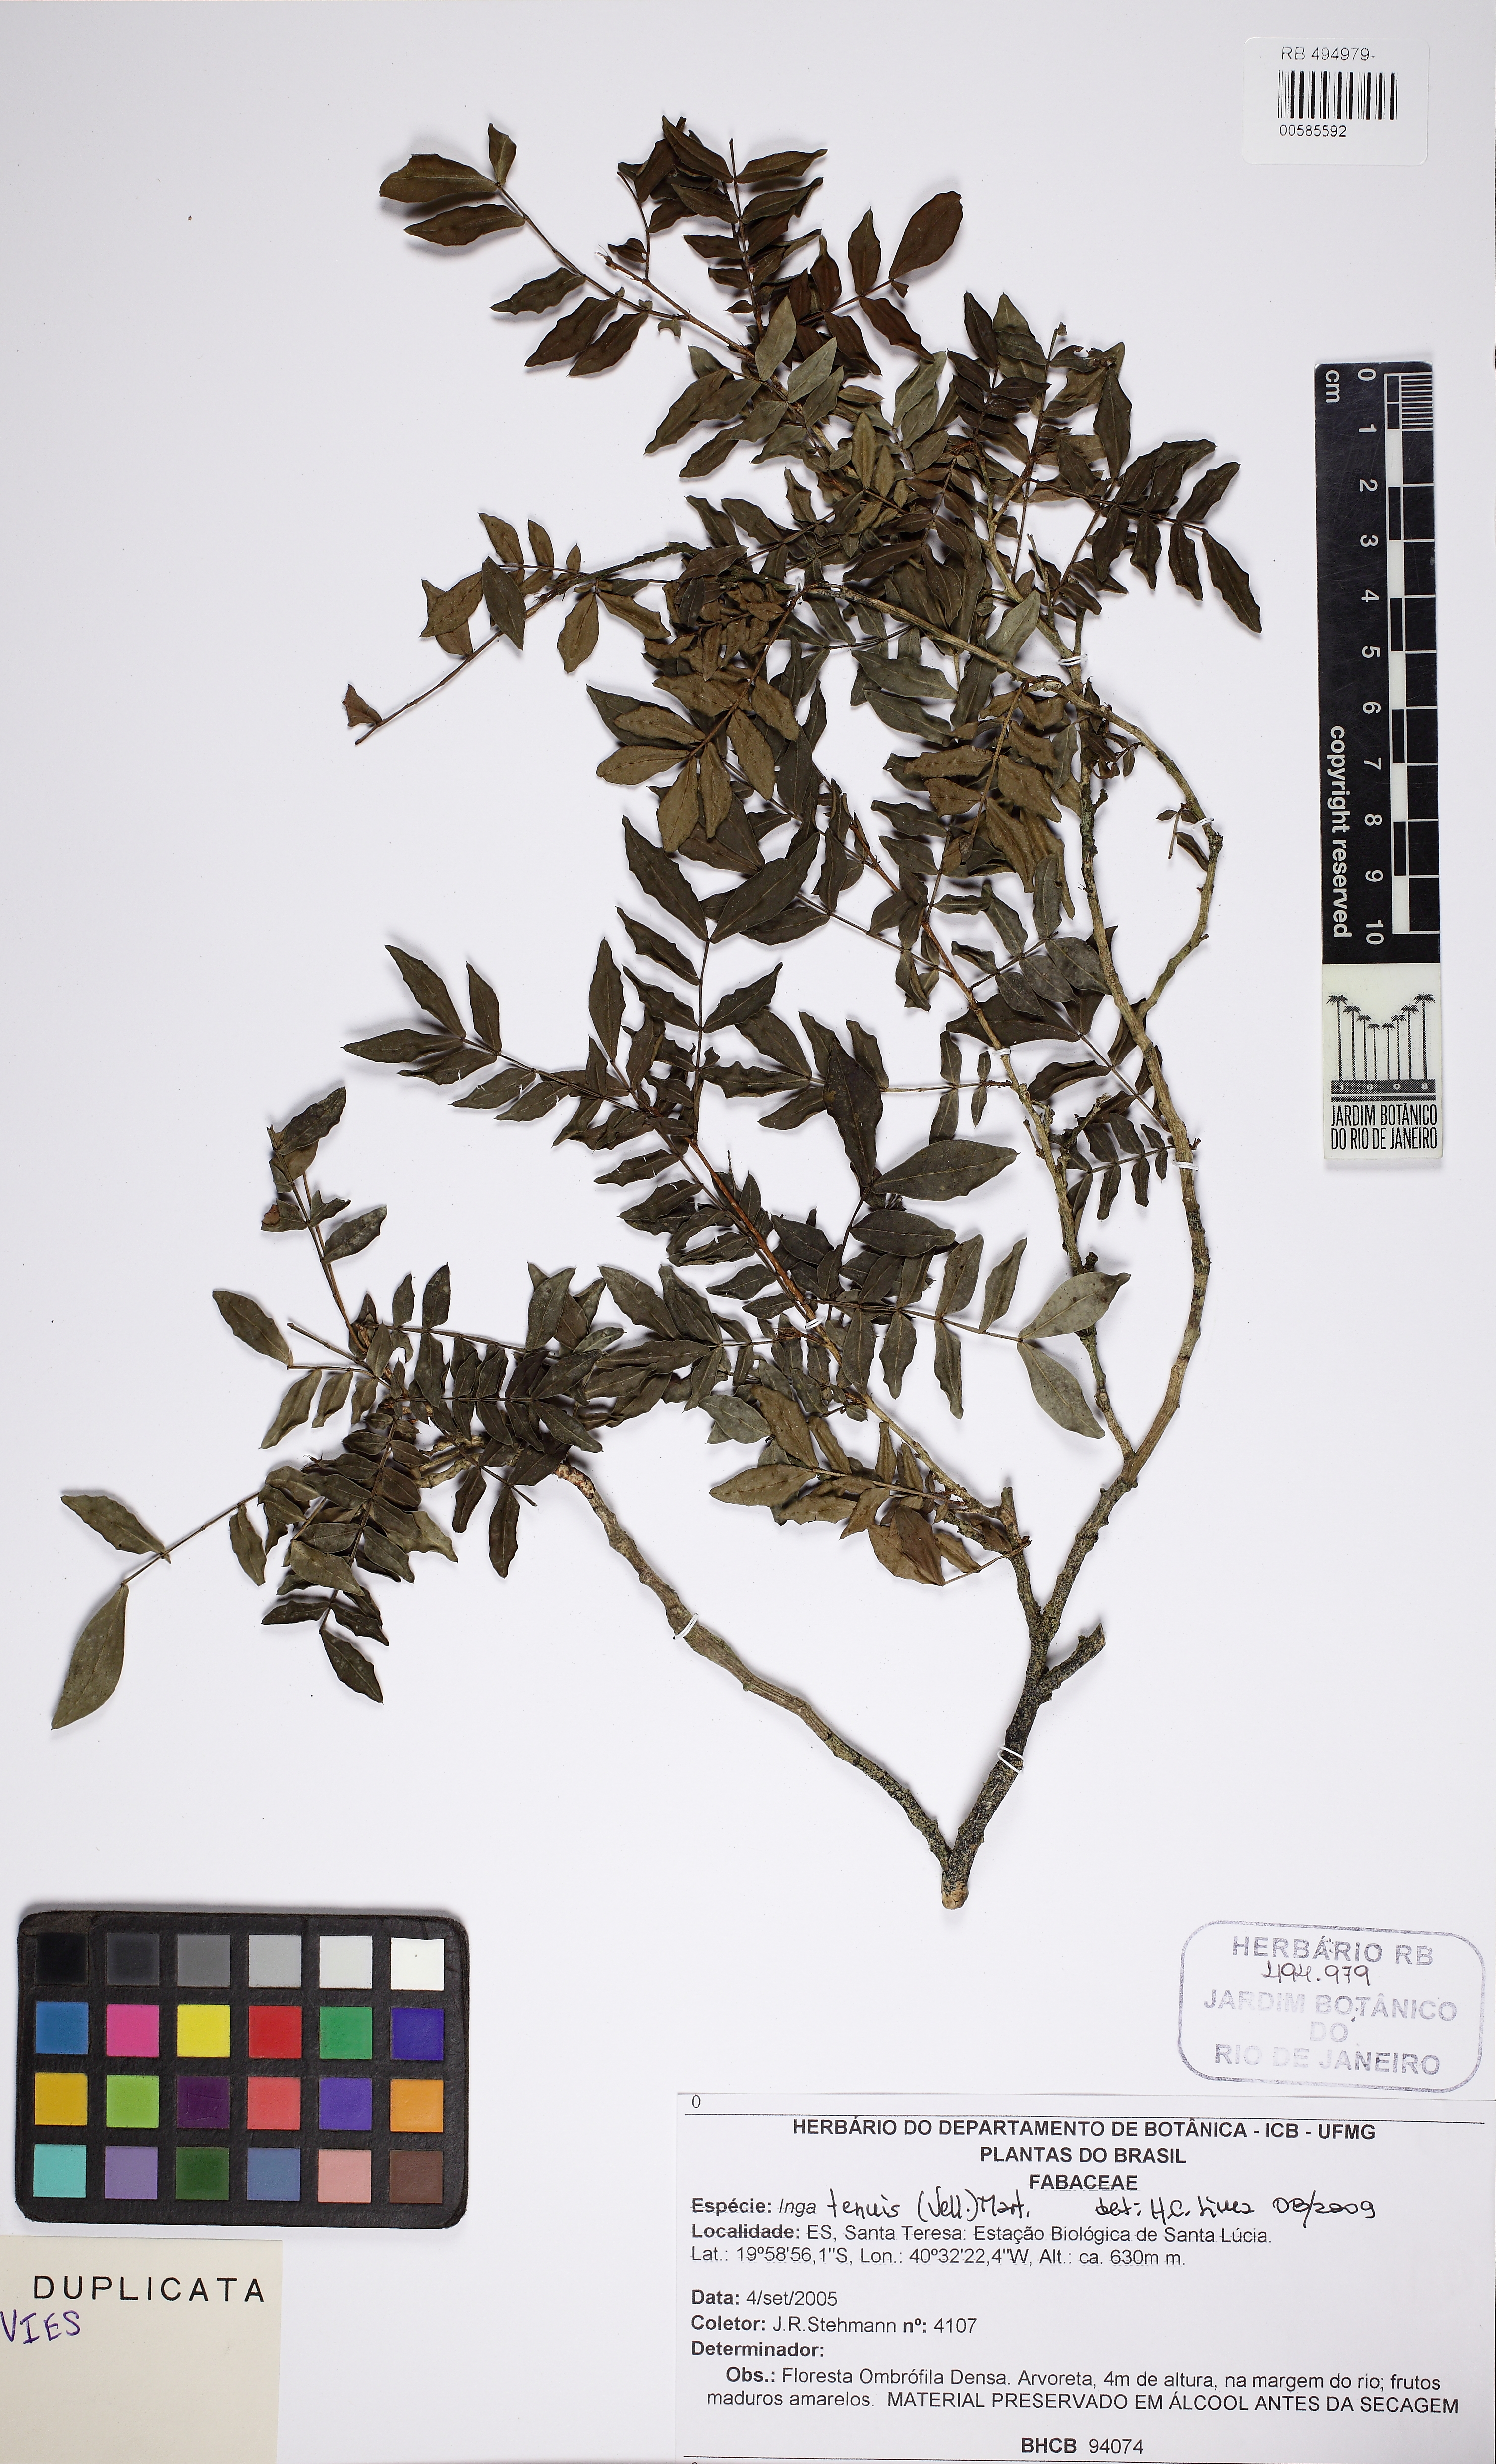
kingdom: Plantae
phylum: Tracheophyta
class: Magnoliopsida
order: Fabales
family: Fabaceae
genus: Inga
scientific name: Inga tenuis
